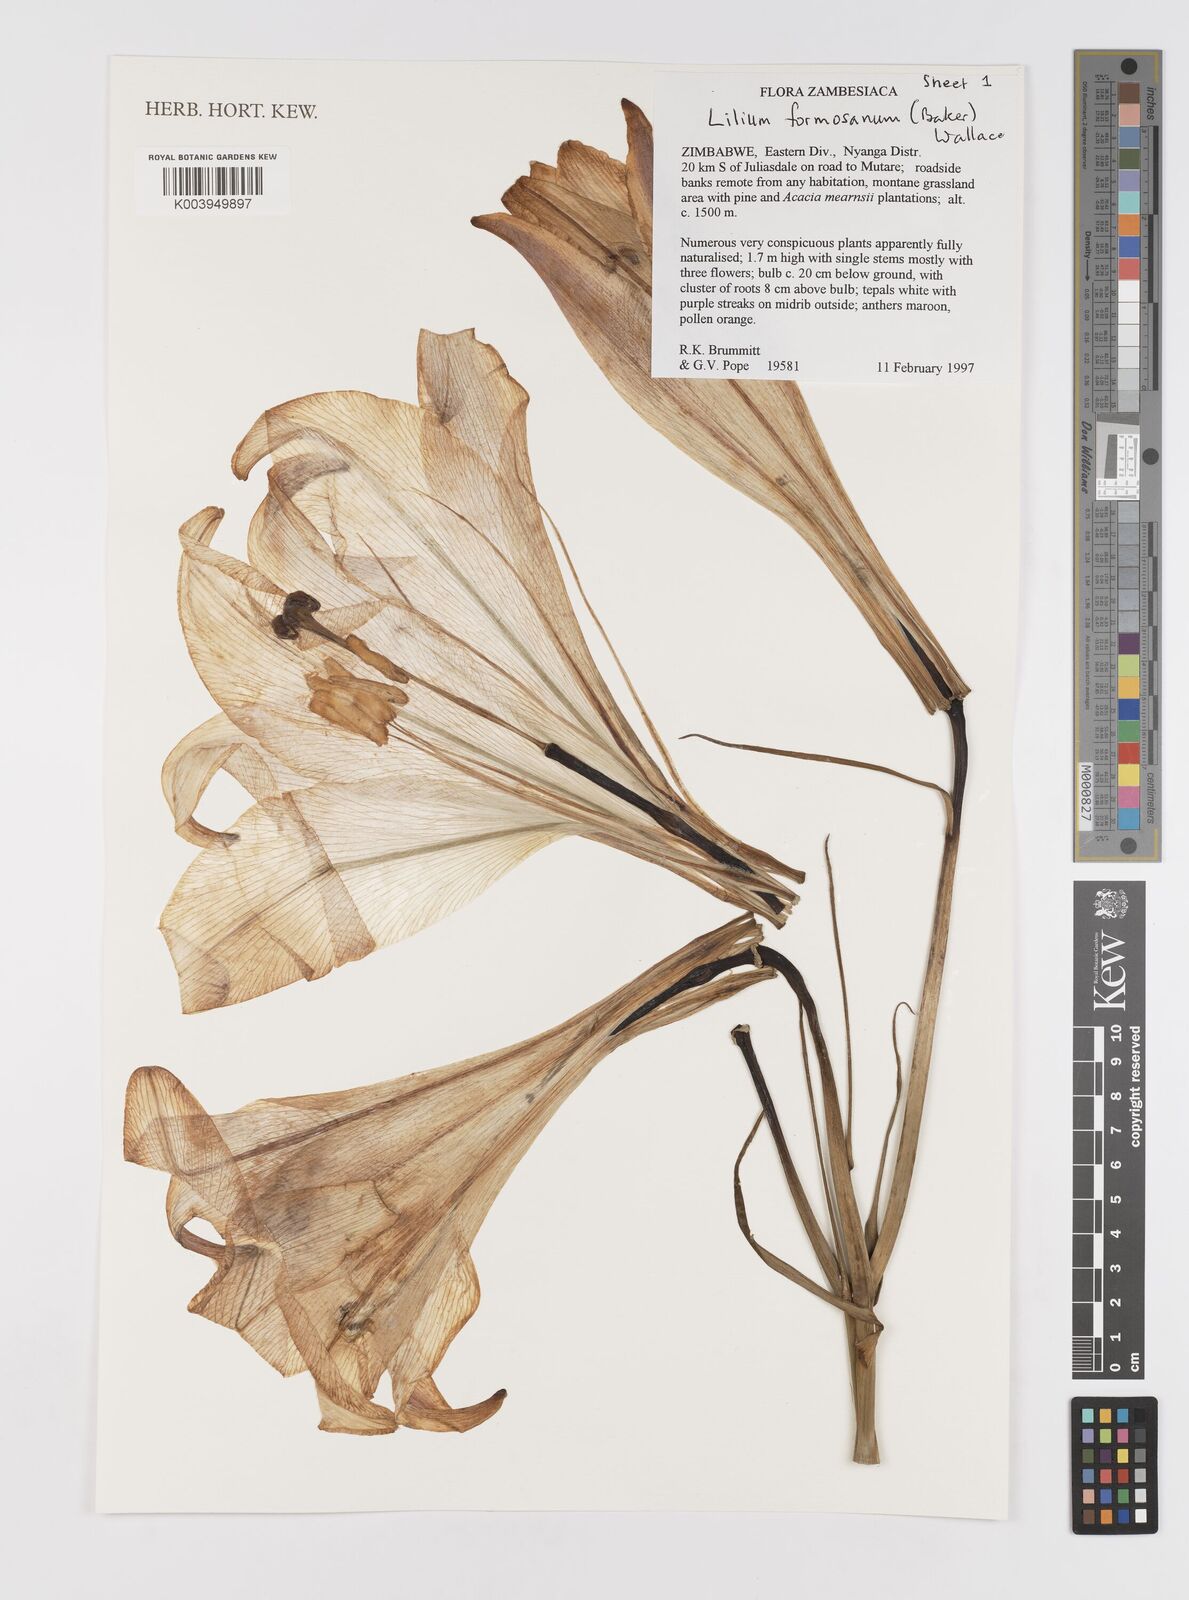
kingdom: Plantae
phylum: Tracheophyta
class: Liliopsida
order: Liliales
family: Liliaceae
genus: Lilium
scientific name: Lilium formosanum
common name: Formosa lily
